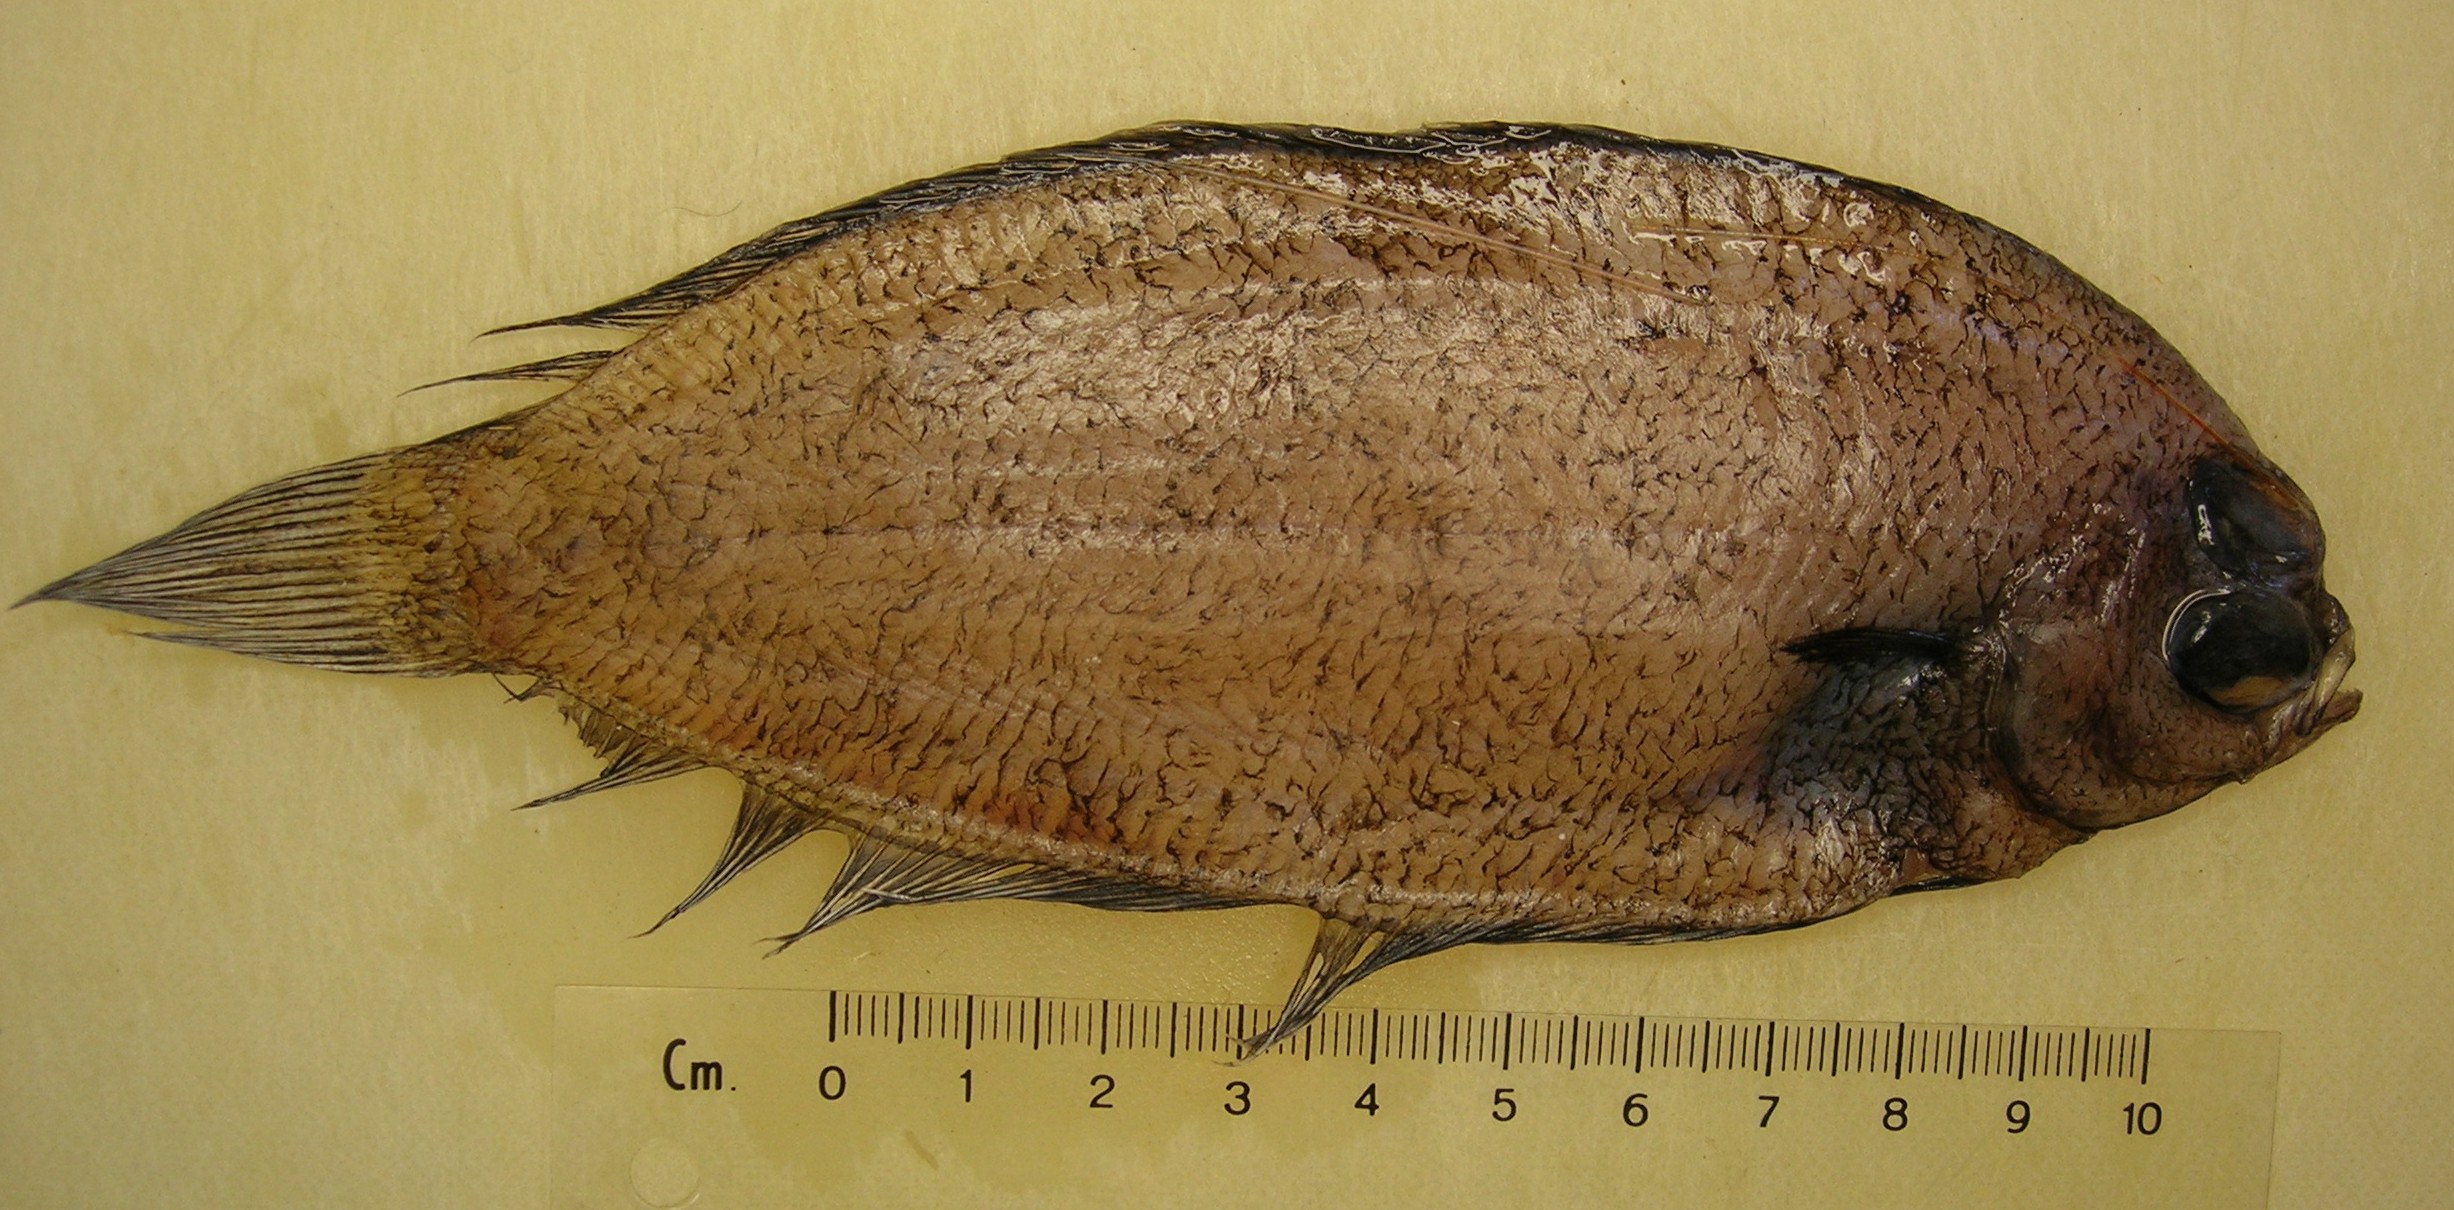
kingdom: Animalia
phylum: Chordata
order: Pleuronectiformes
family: Pleuronectidae
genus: Poecilopsetta
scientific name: Poecilopsetta natalensis
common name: African righteye flounder
